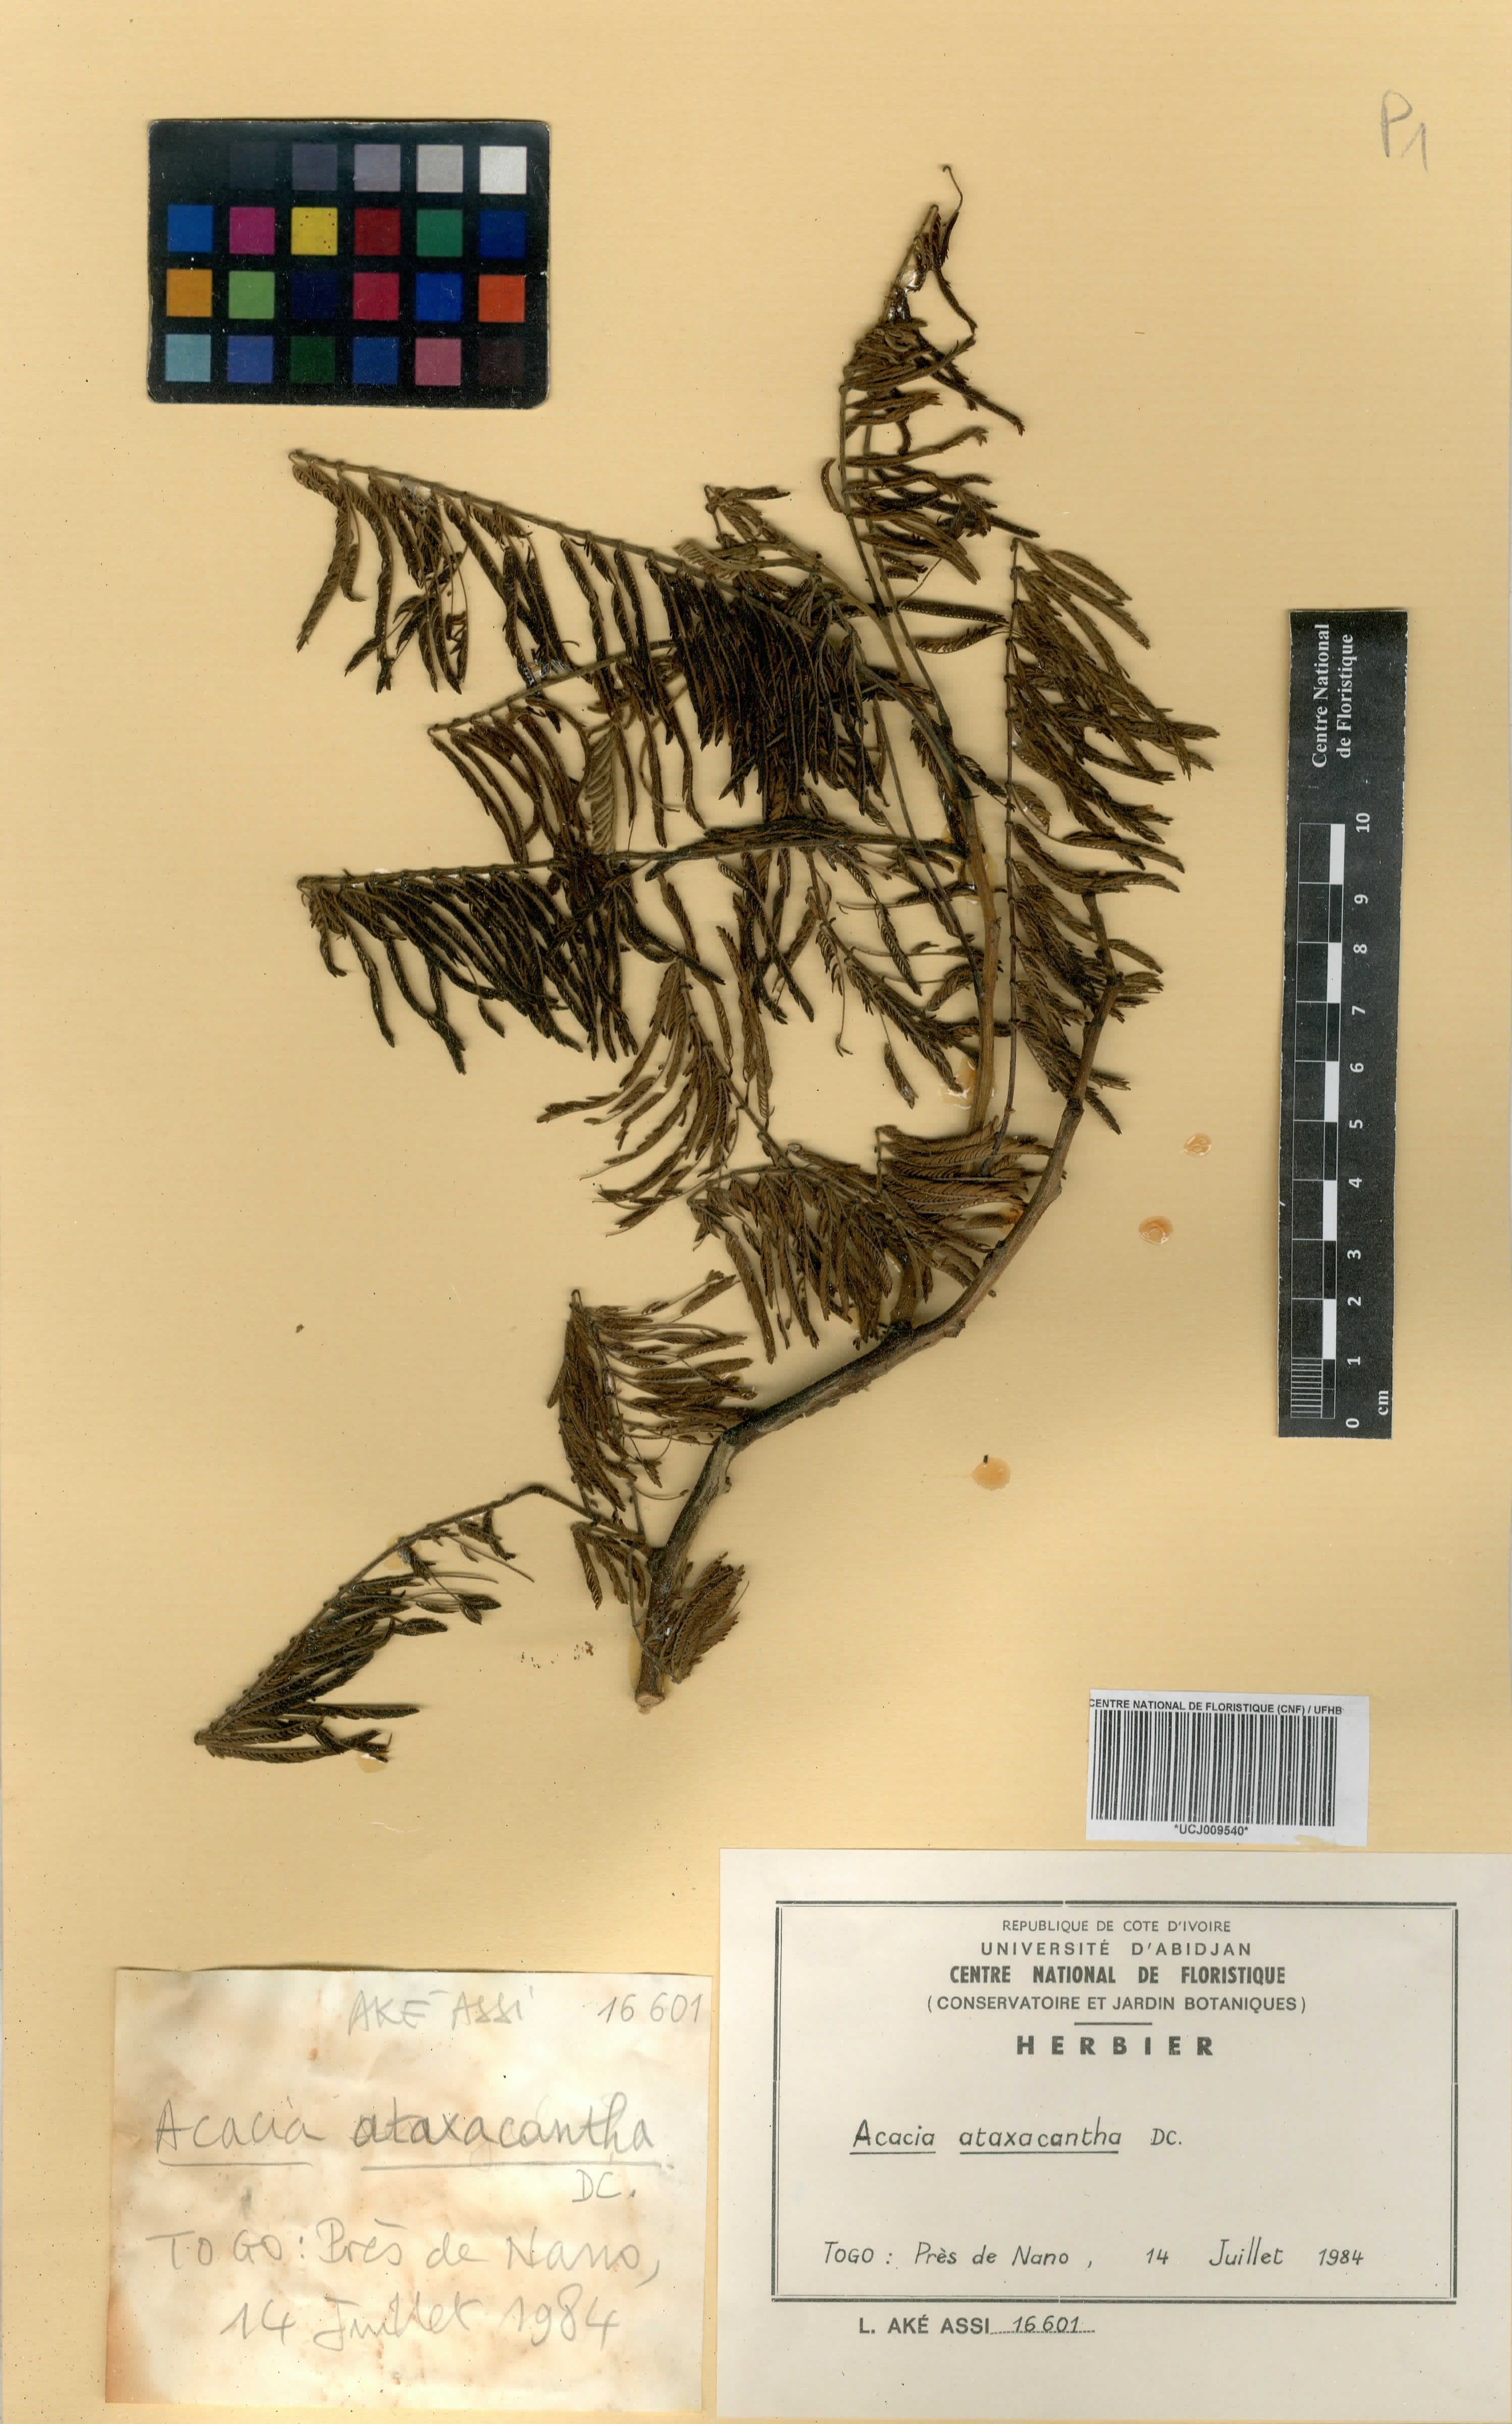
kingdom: Plantae
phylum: Tracheophyta
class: Magnoliopsida
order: Fabales
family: Fabaceae
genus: Senegalia
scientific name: Senegalia ataxacantha
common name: Flame acacia
